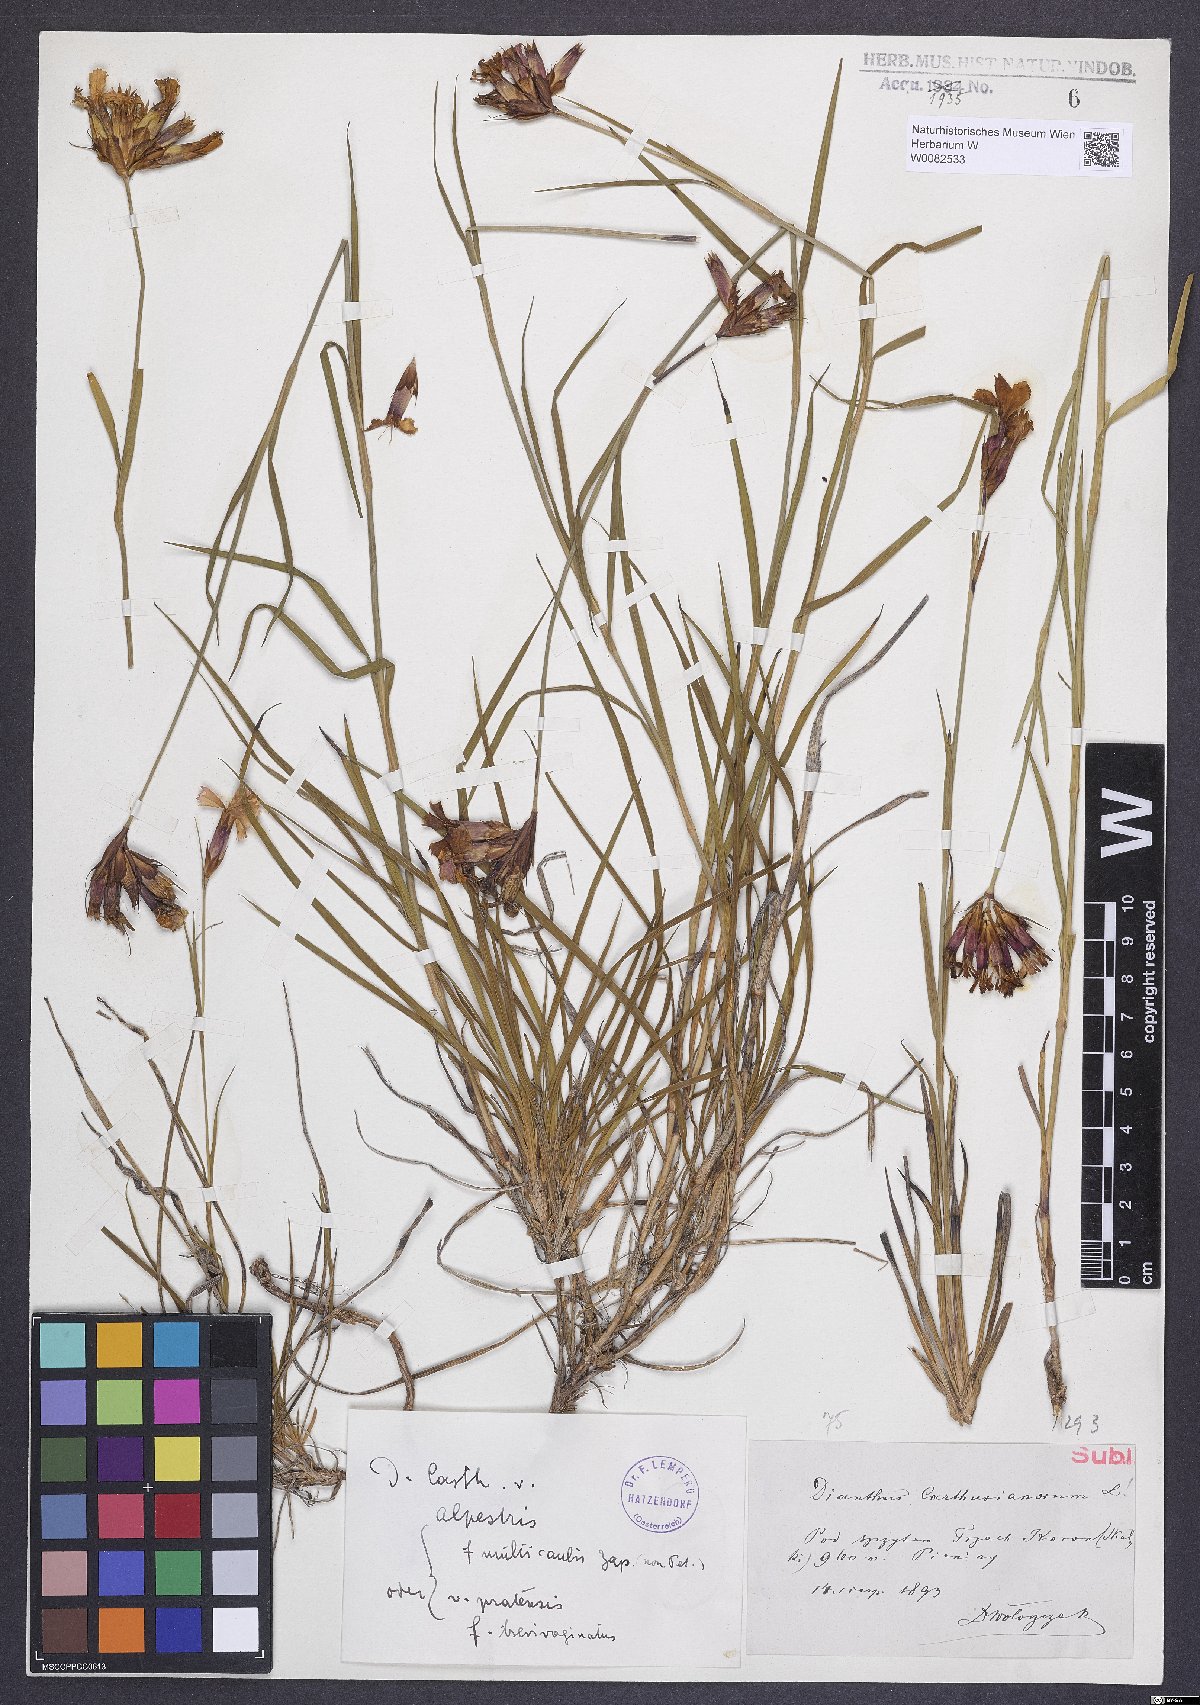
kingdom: Plantae
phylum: Tracheophyta
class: Magnoliopsida
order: Caryophyllales
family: Caryophyllaceae
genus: Dianthus
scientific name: Dianthus carthusianorum
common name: Carthusian pink
